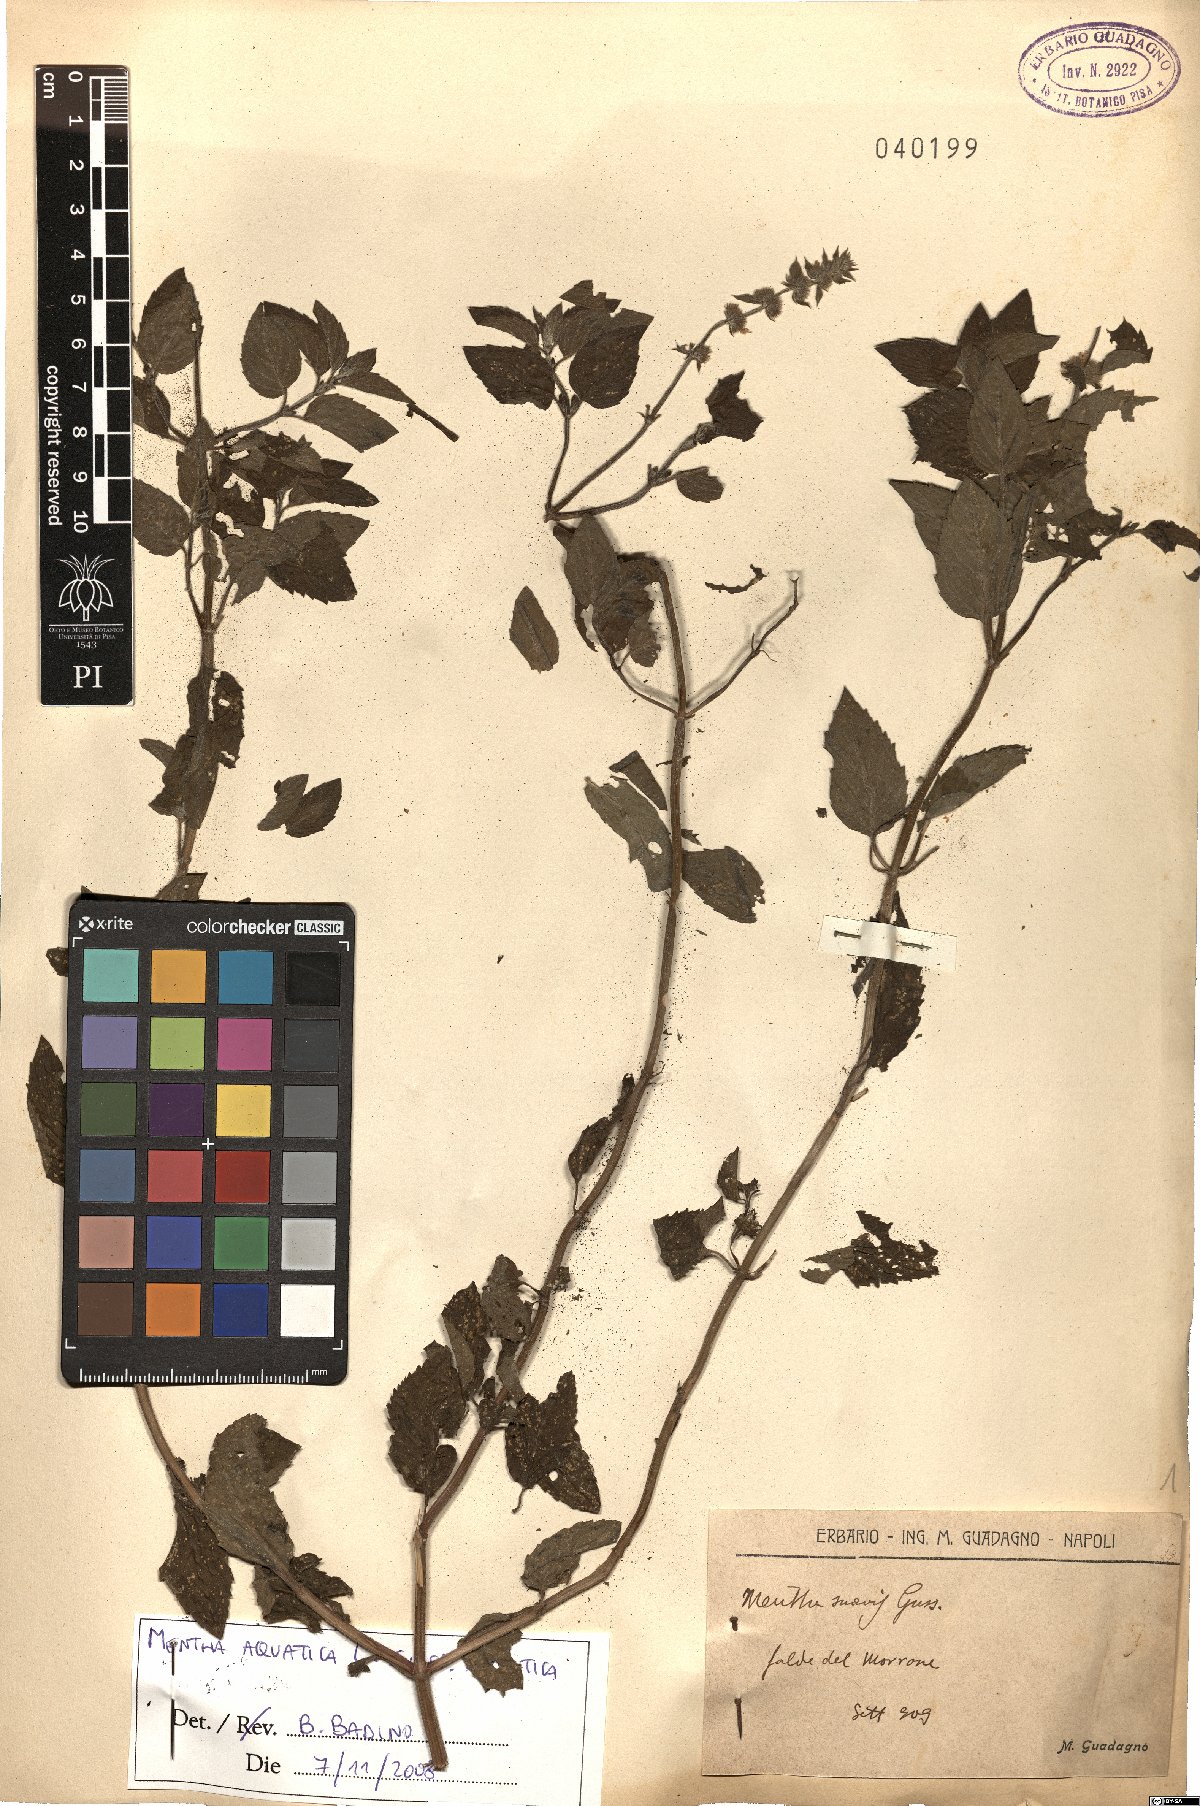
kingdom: Plantae
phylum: Tracheophyta
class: Magnoliopsida
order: Lamiales
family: Lamiaceae
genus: Mentha
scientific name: Mentha aquatica
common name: Water mint
